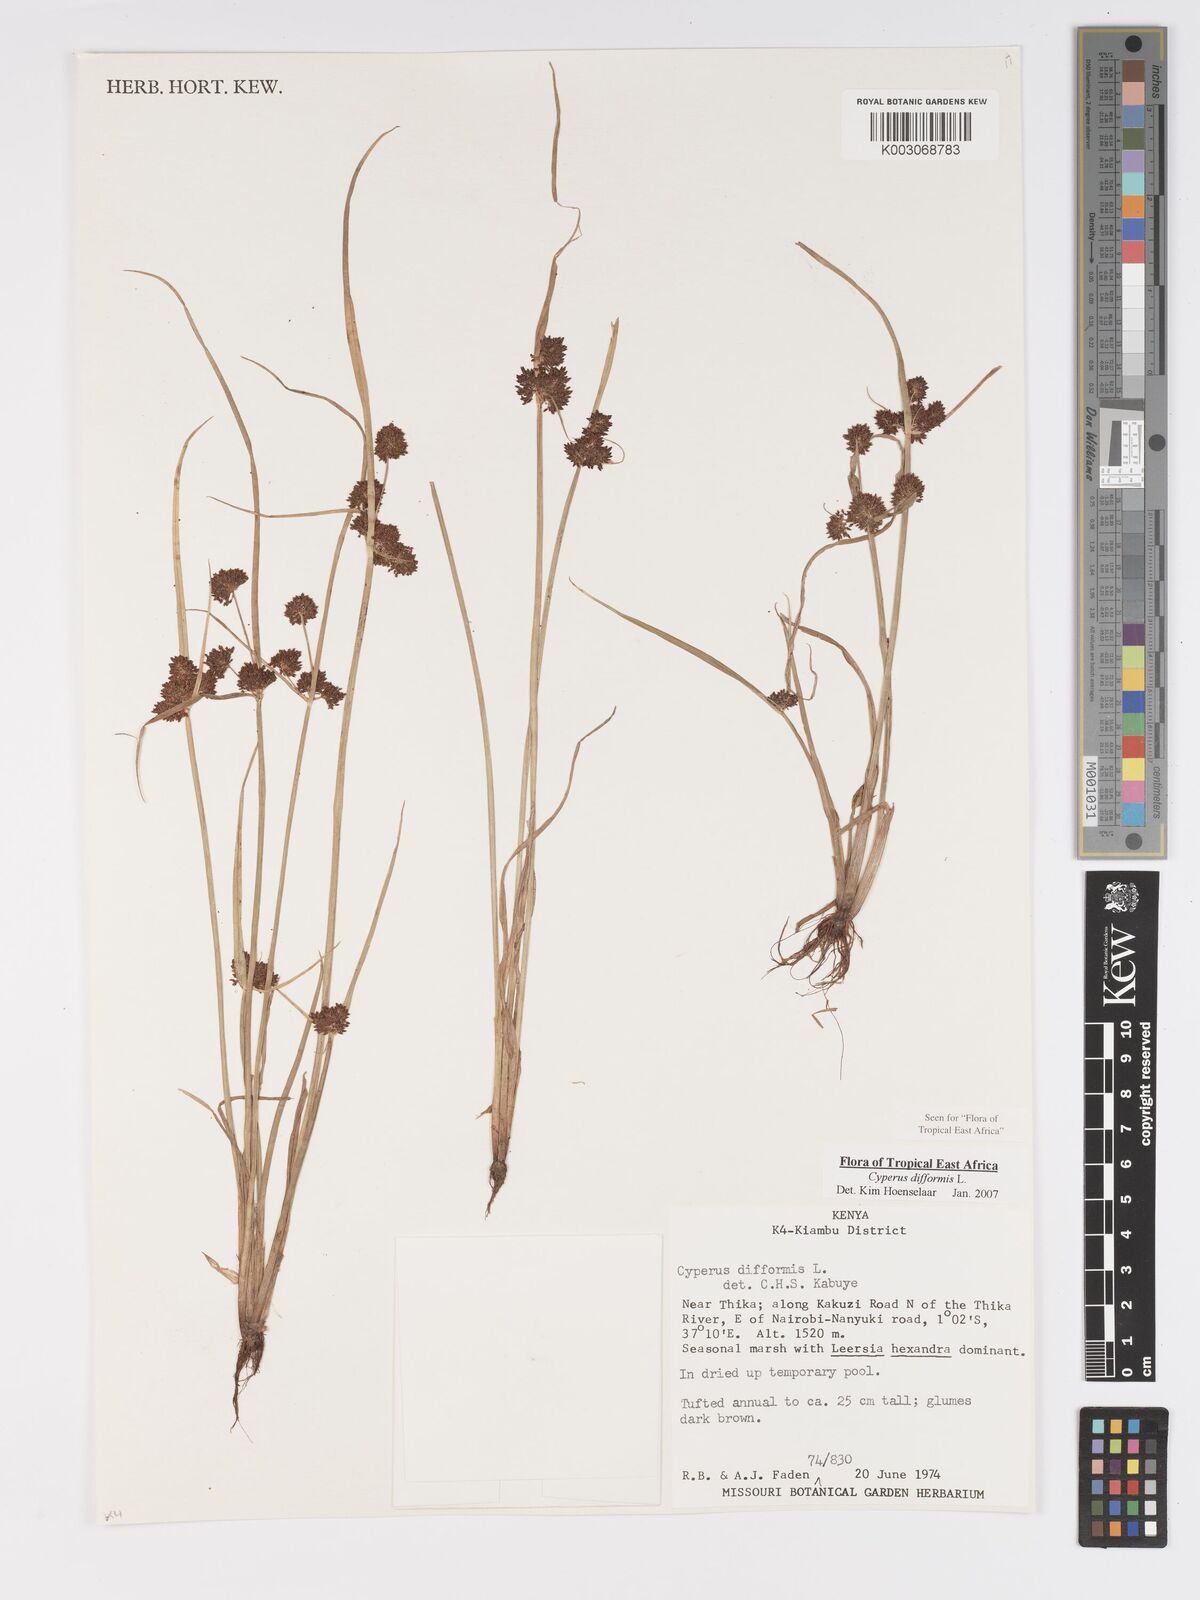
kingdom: Plantae
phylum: Tracheophyta
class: Liliopsida
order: Poales
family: Cyperaceae
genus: Cyperus
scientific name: Cyperus difformis
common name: Variable flatsedge
